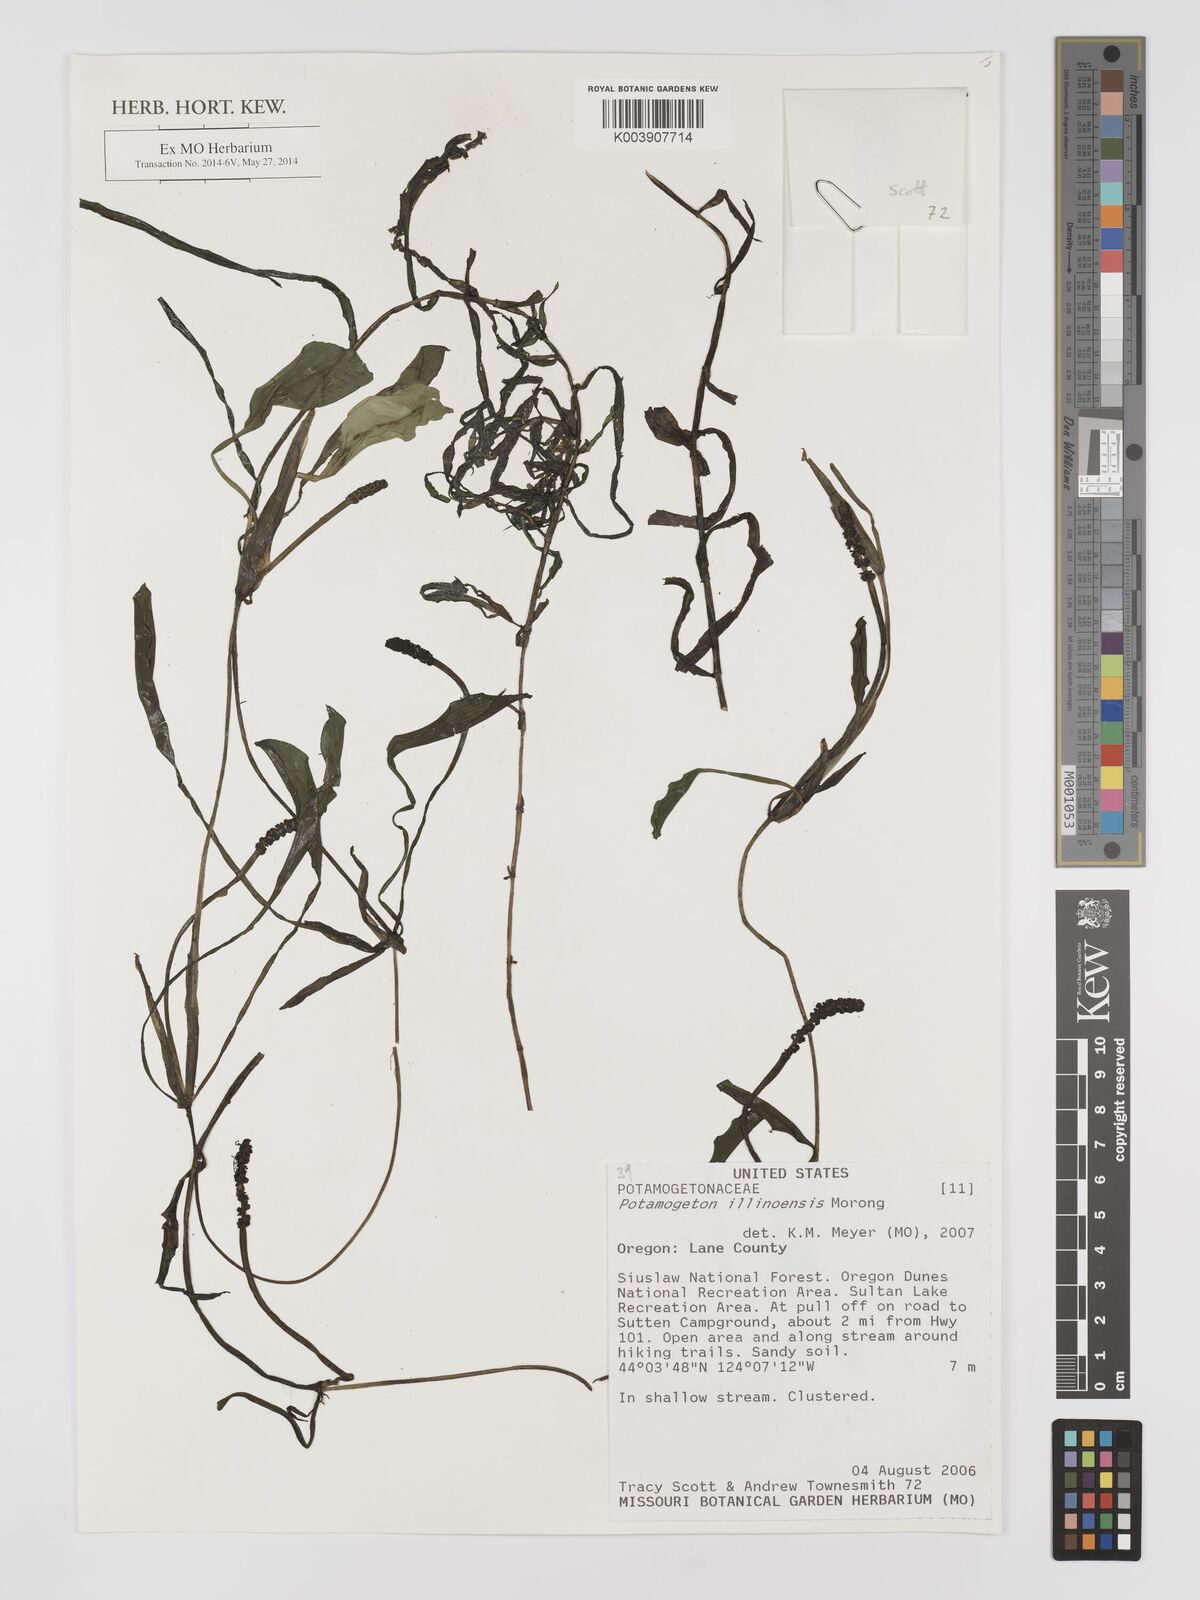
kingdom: Plantae
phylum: Tracheophyta
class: Liliopsida
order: Alismatales
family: Potamogetonaceae
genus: Potamogeton
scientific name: Potamogeton illinoensis
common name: Illinois pondweed
